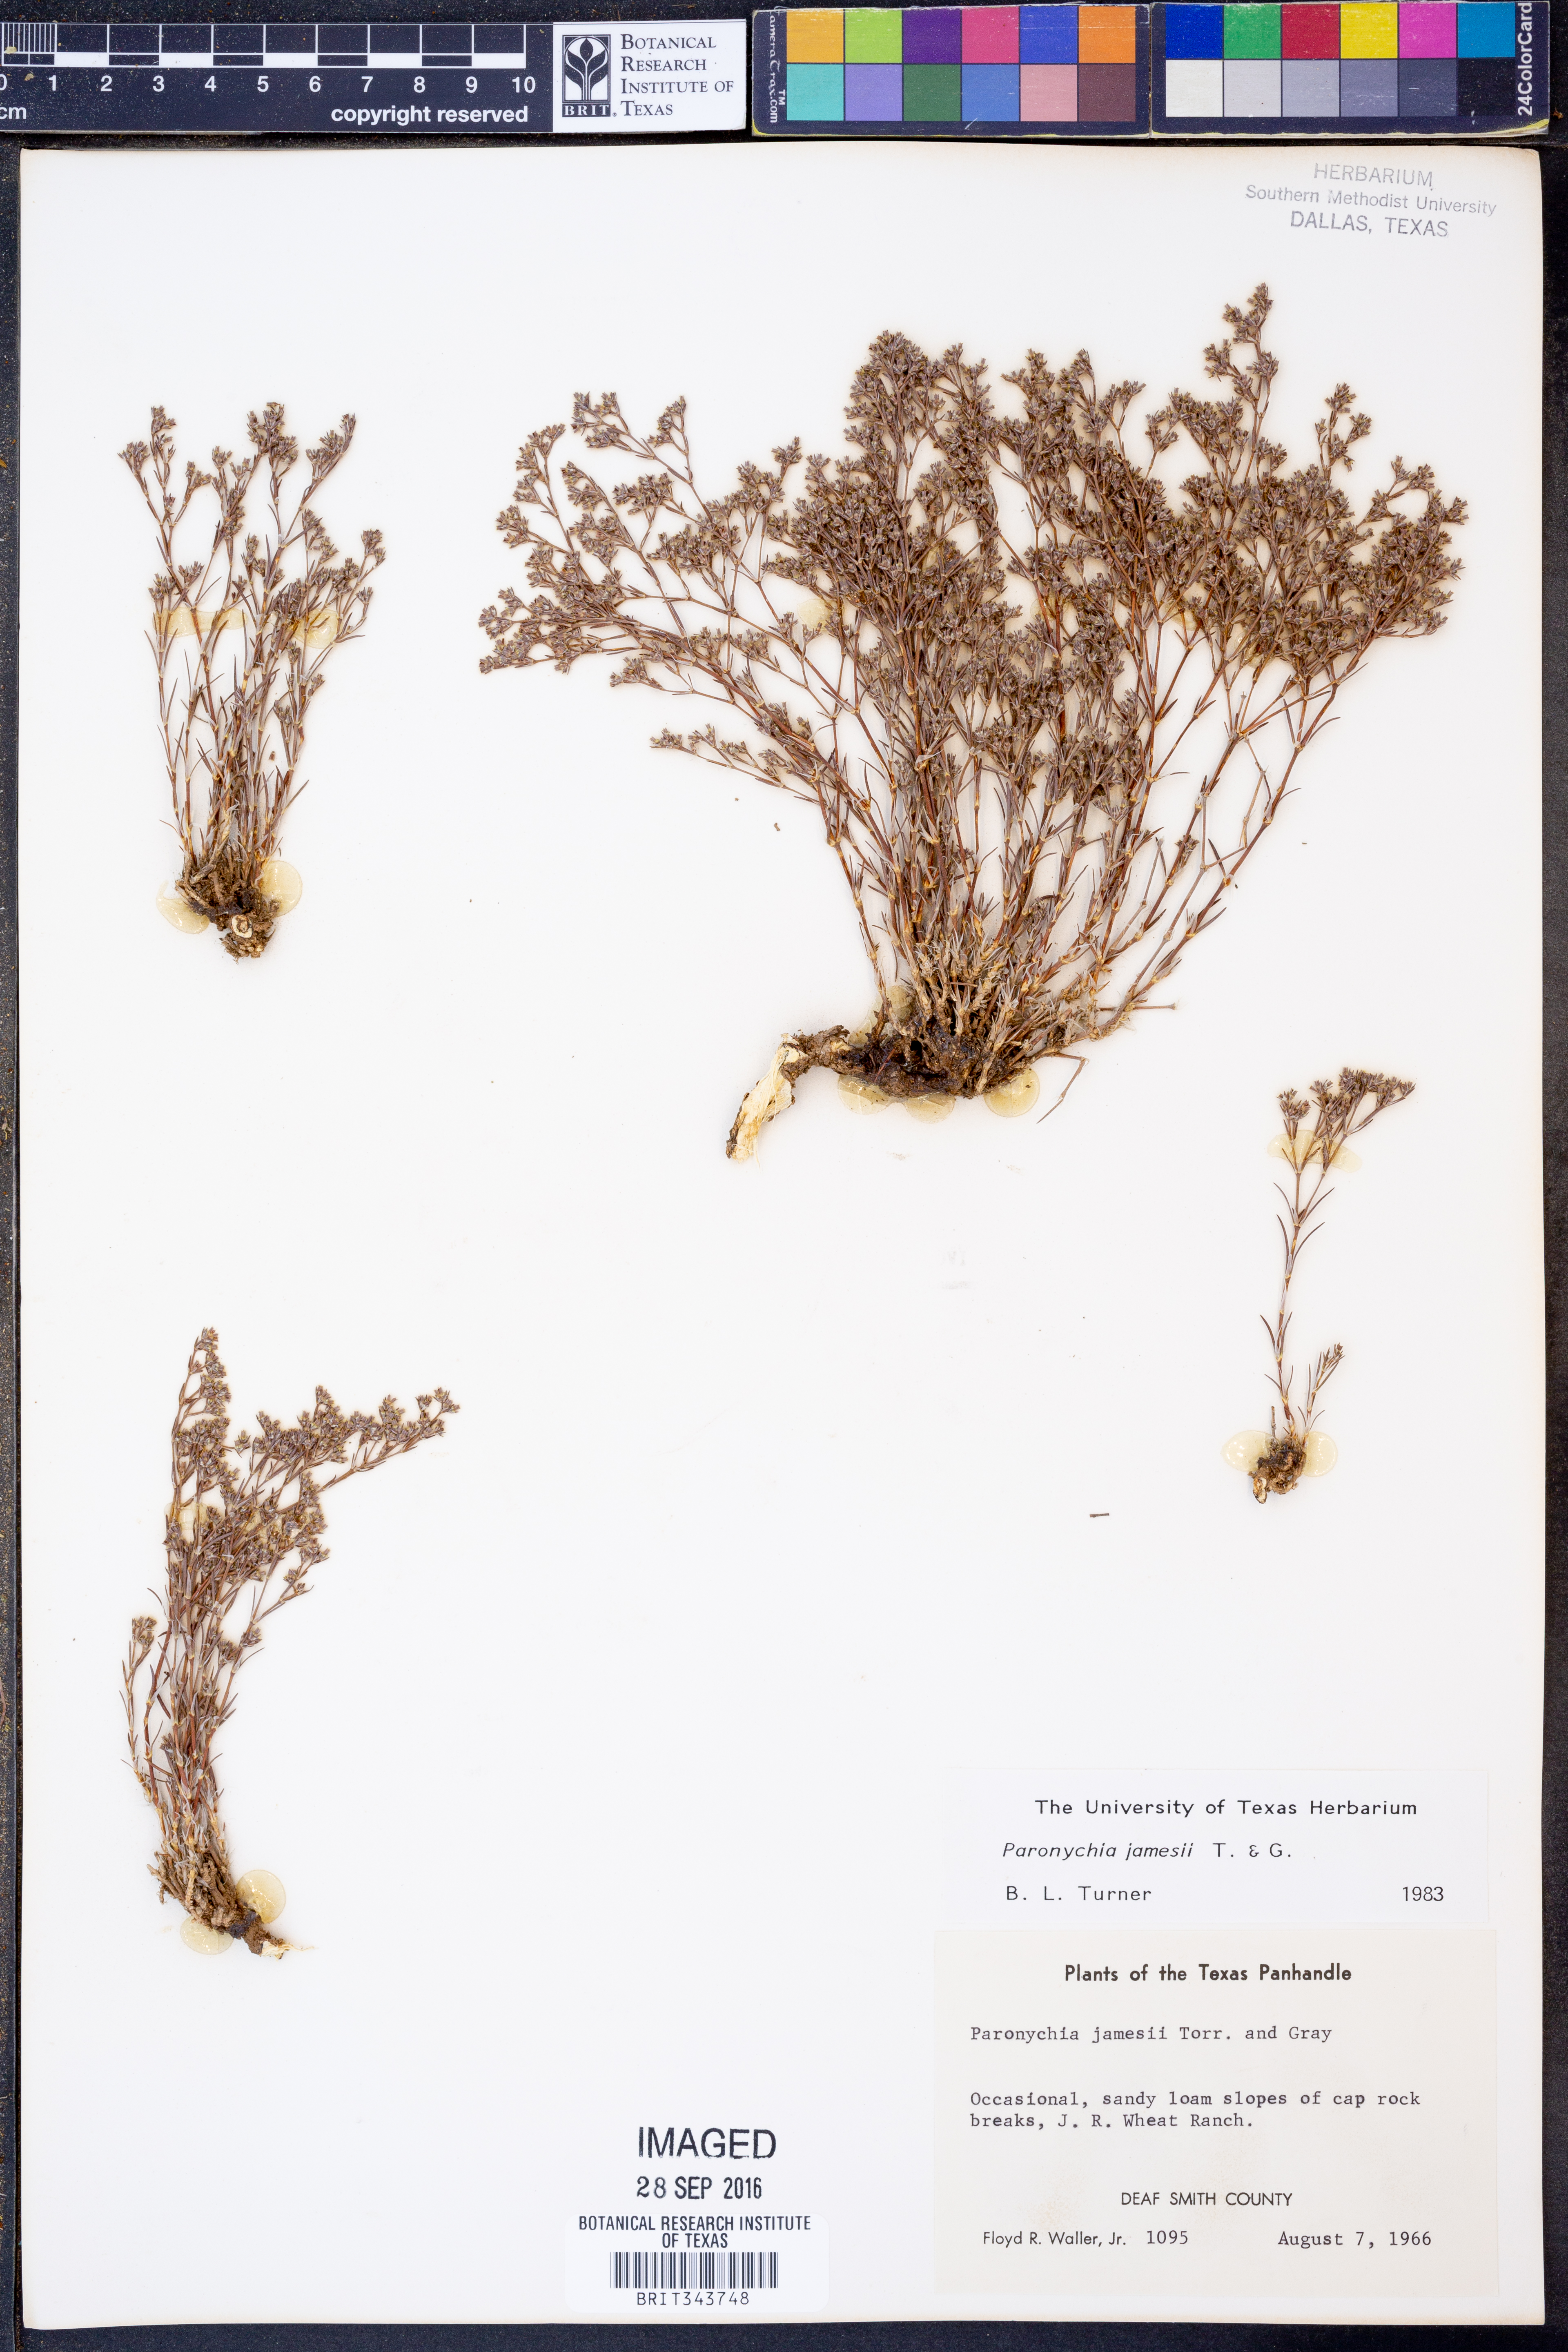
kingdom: Plantae
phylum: Tracheophyta
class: Magnoliopsida
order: Caryophyllales
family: Caryophyllaceae
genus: Paronychia
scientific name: Paronychia jamesii
